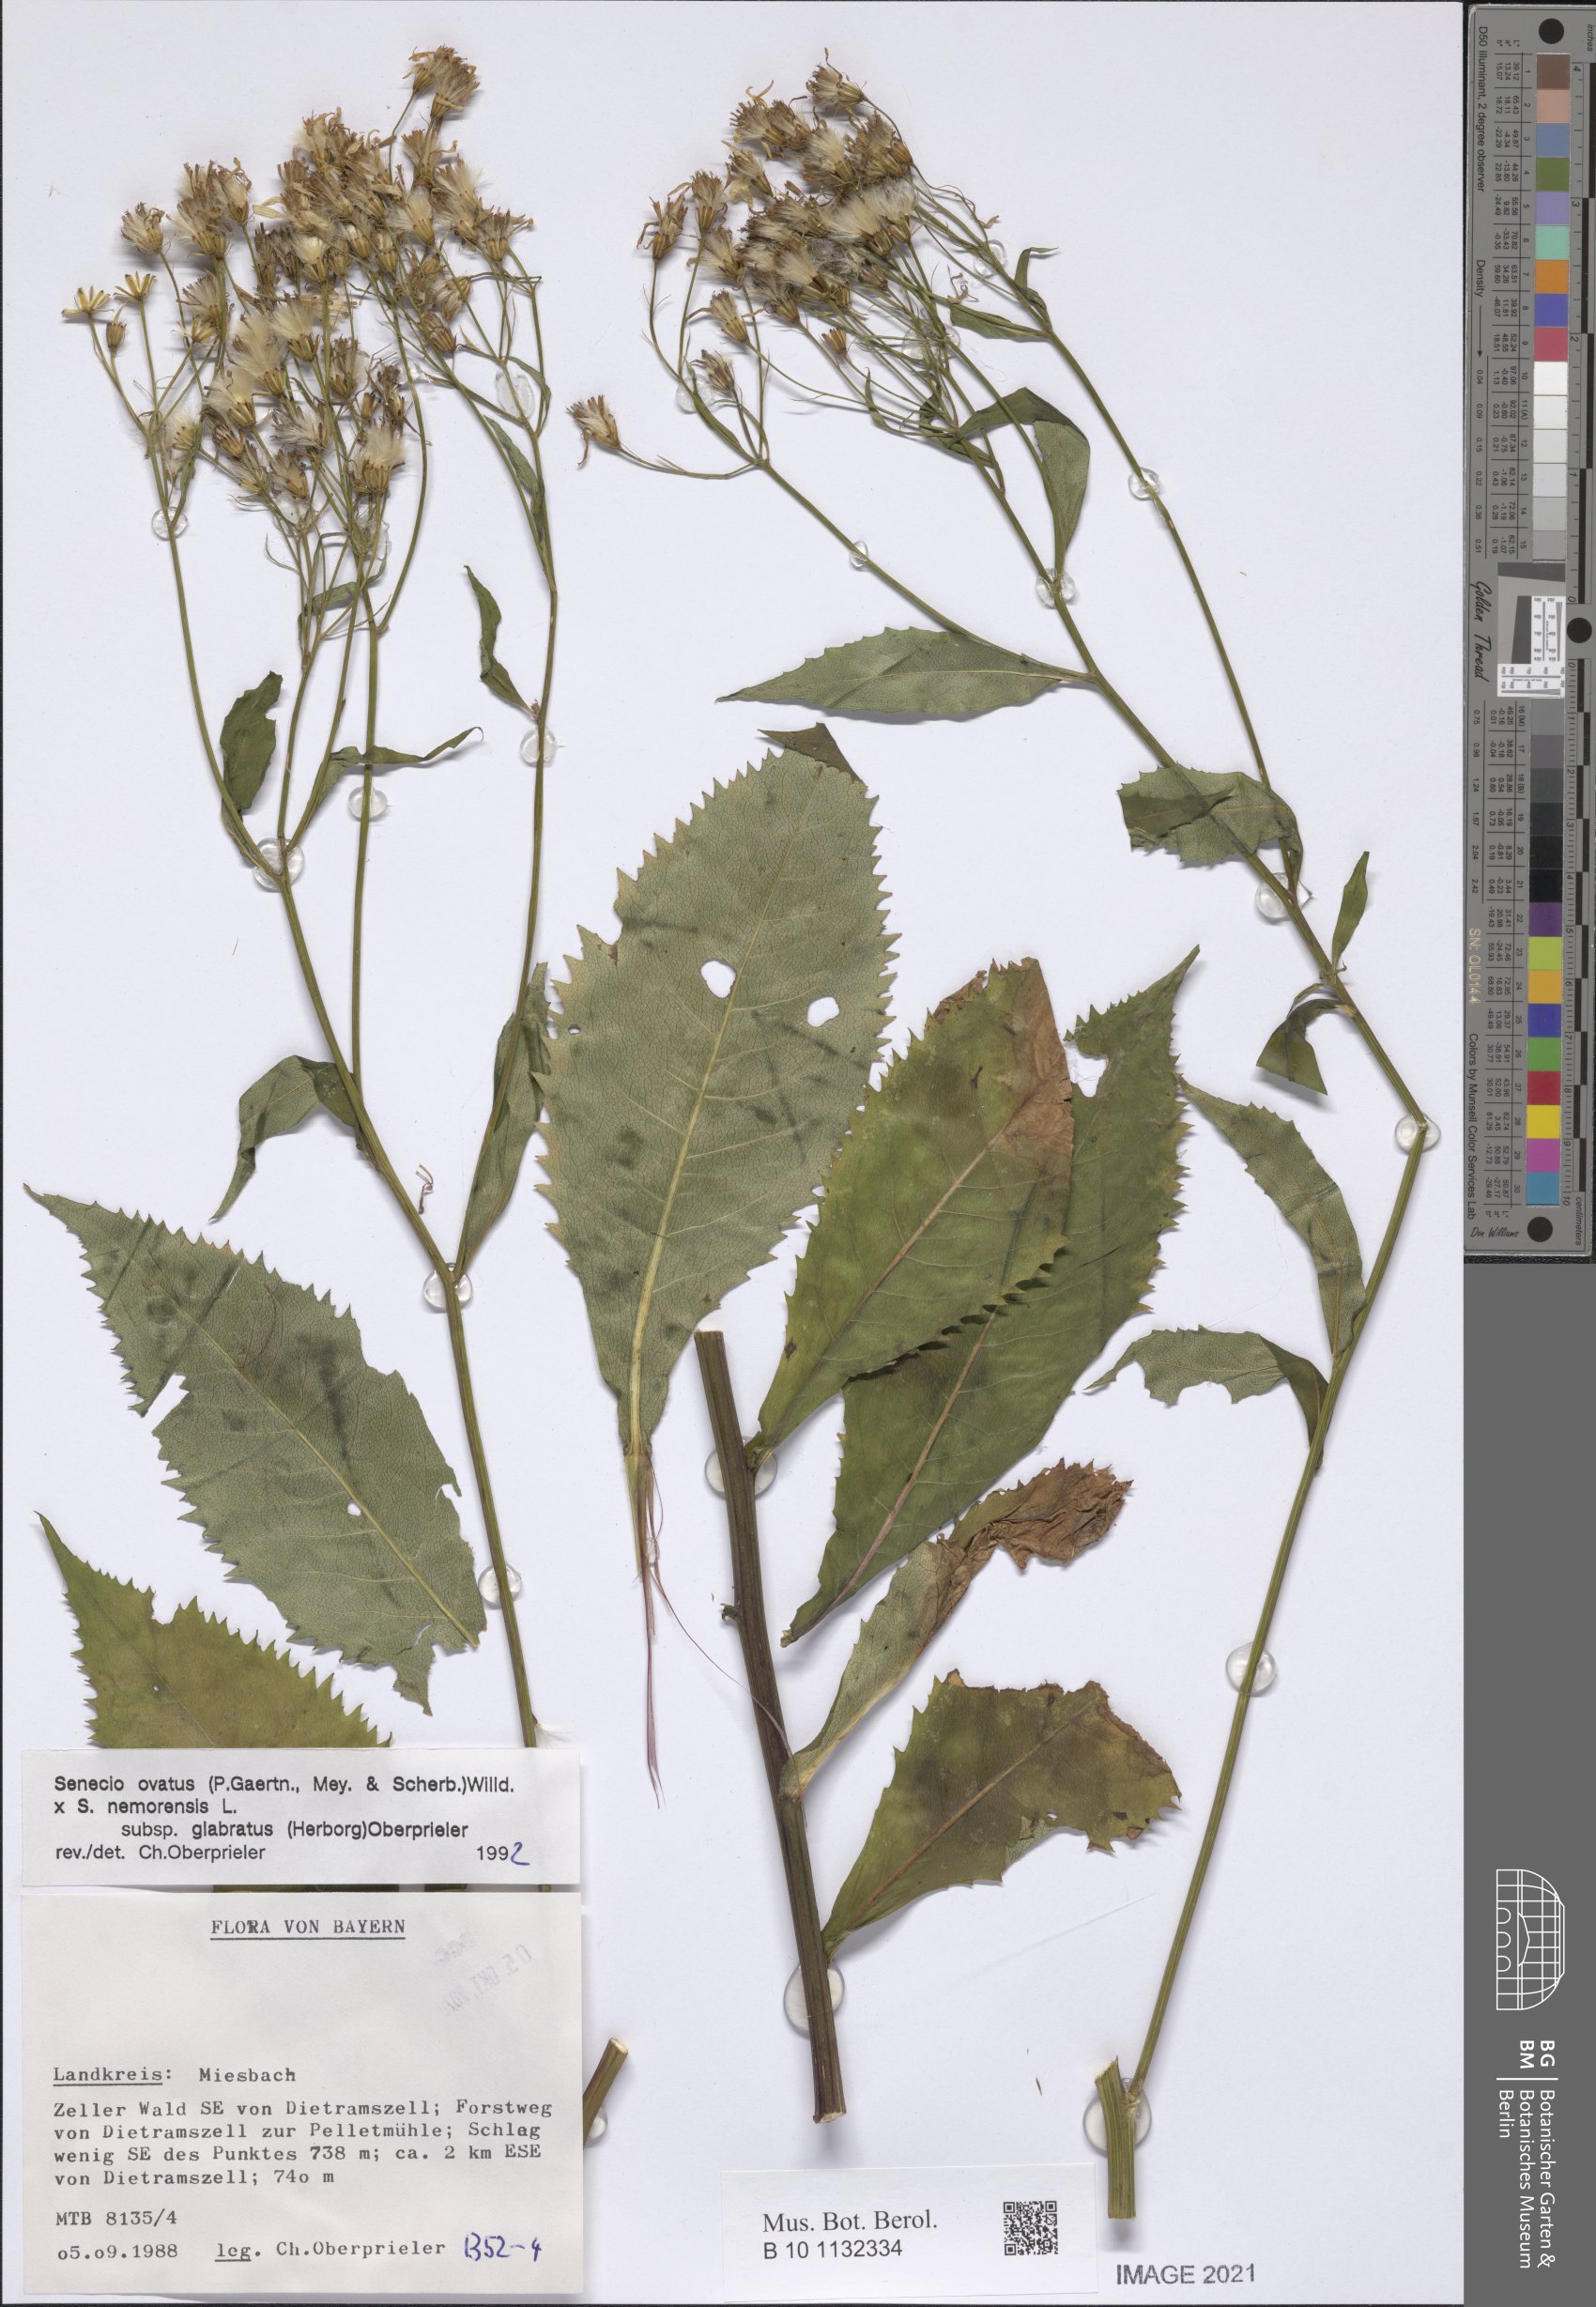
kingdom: Plantae
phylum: Tracheophyta
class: Magnoliopsida
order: Asterales
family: Asteraceae
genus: Senecio
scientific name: Senecio ovatus
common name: Wood ragwort
